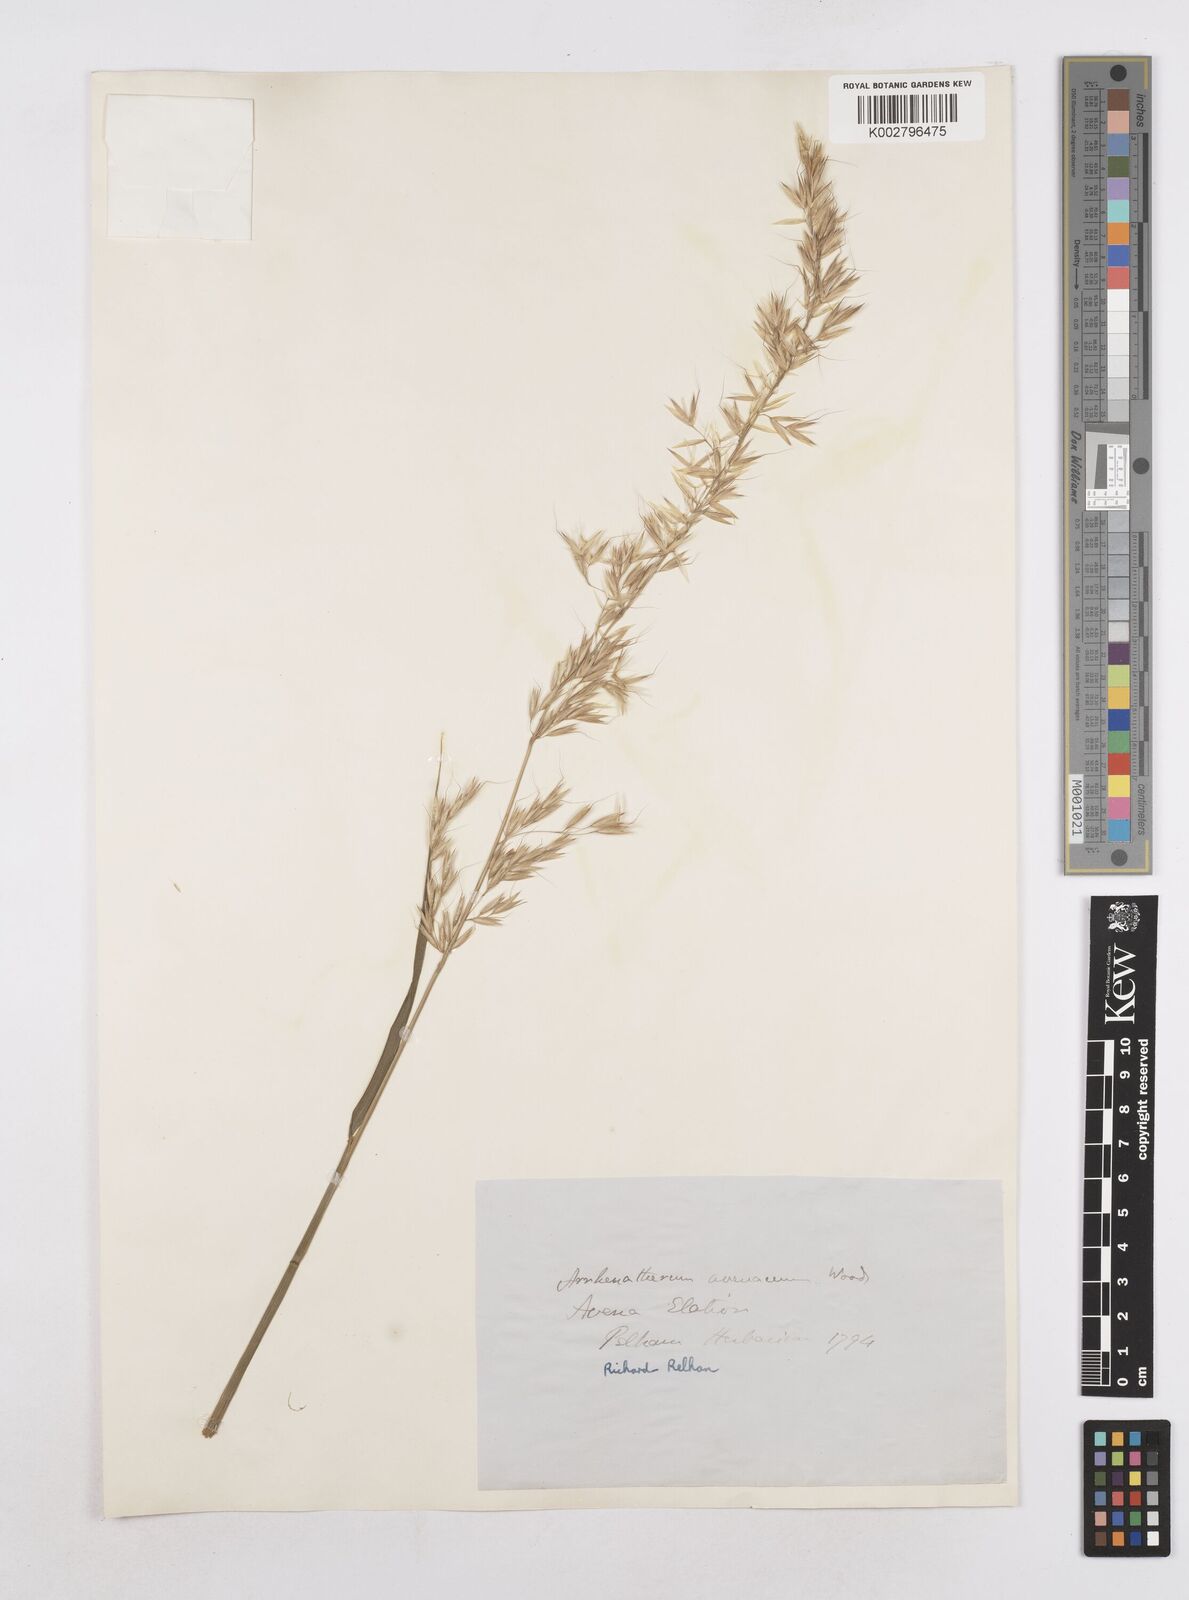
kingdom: Plantae
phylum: Tracheophyta
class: Liliopsida
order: Poales
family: Poaceae
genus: Arrhenatherum
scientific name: Arrhenatherum elatius
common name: Tall oatgrass
